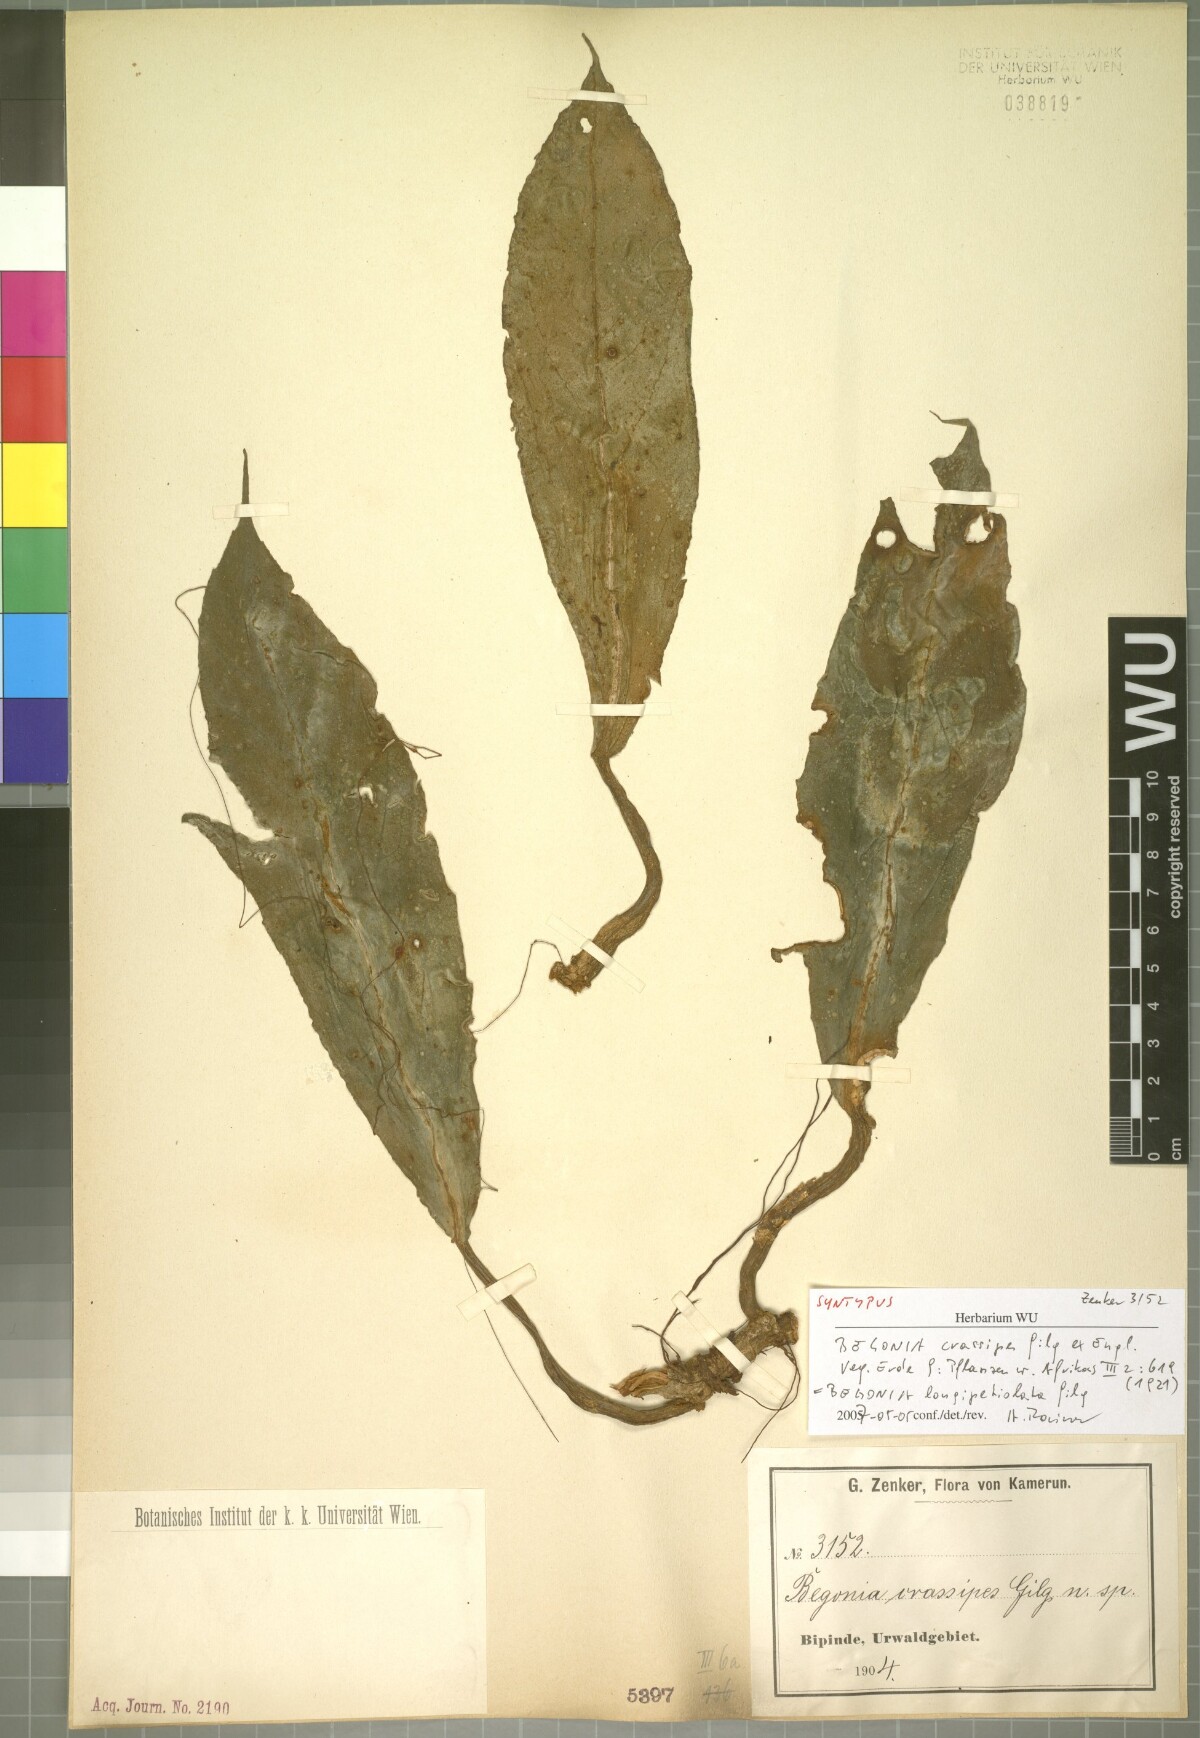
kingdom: Plantae
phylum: Tracheophyta
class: Magnoliopsida
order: Cucurbitales
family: Begoniaceae
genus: Begonia
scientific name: Begonia longipetiolata
